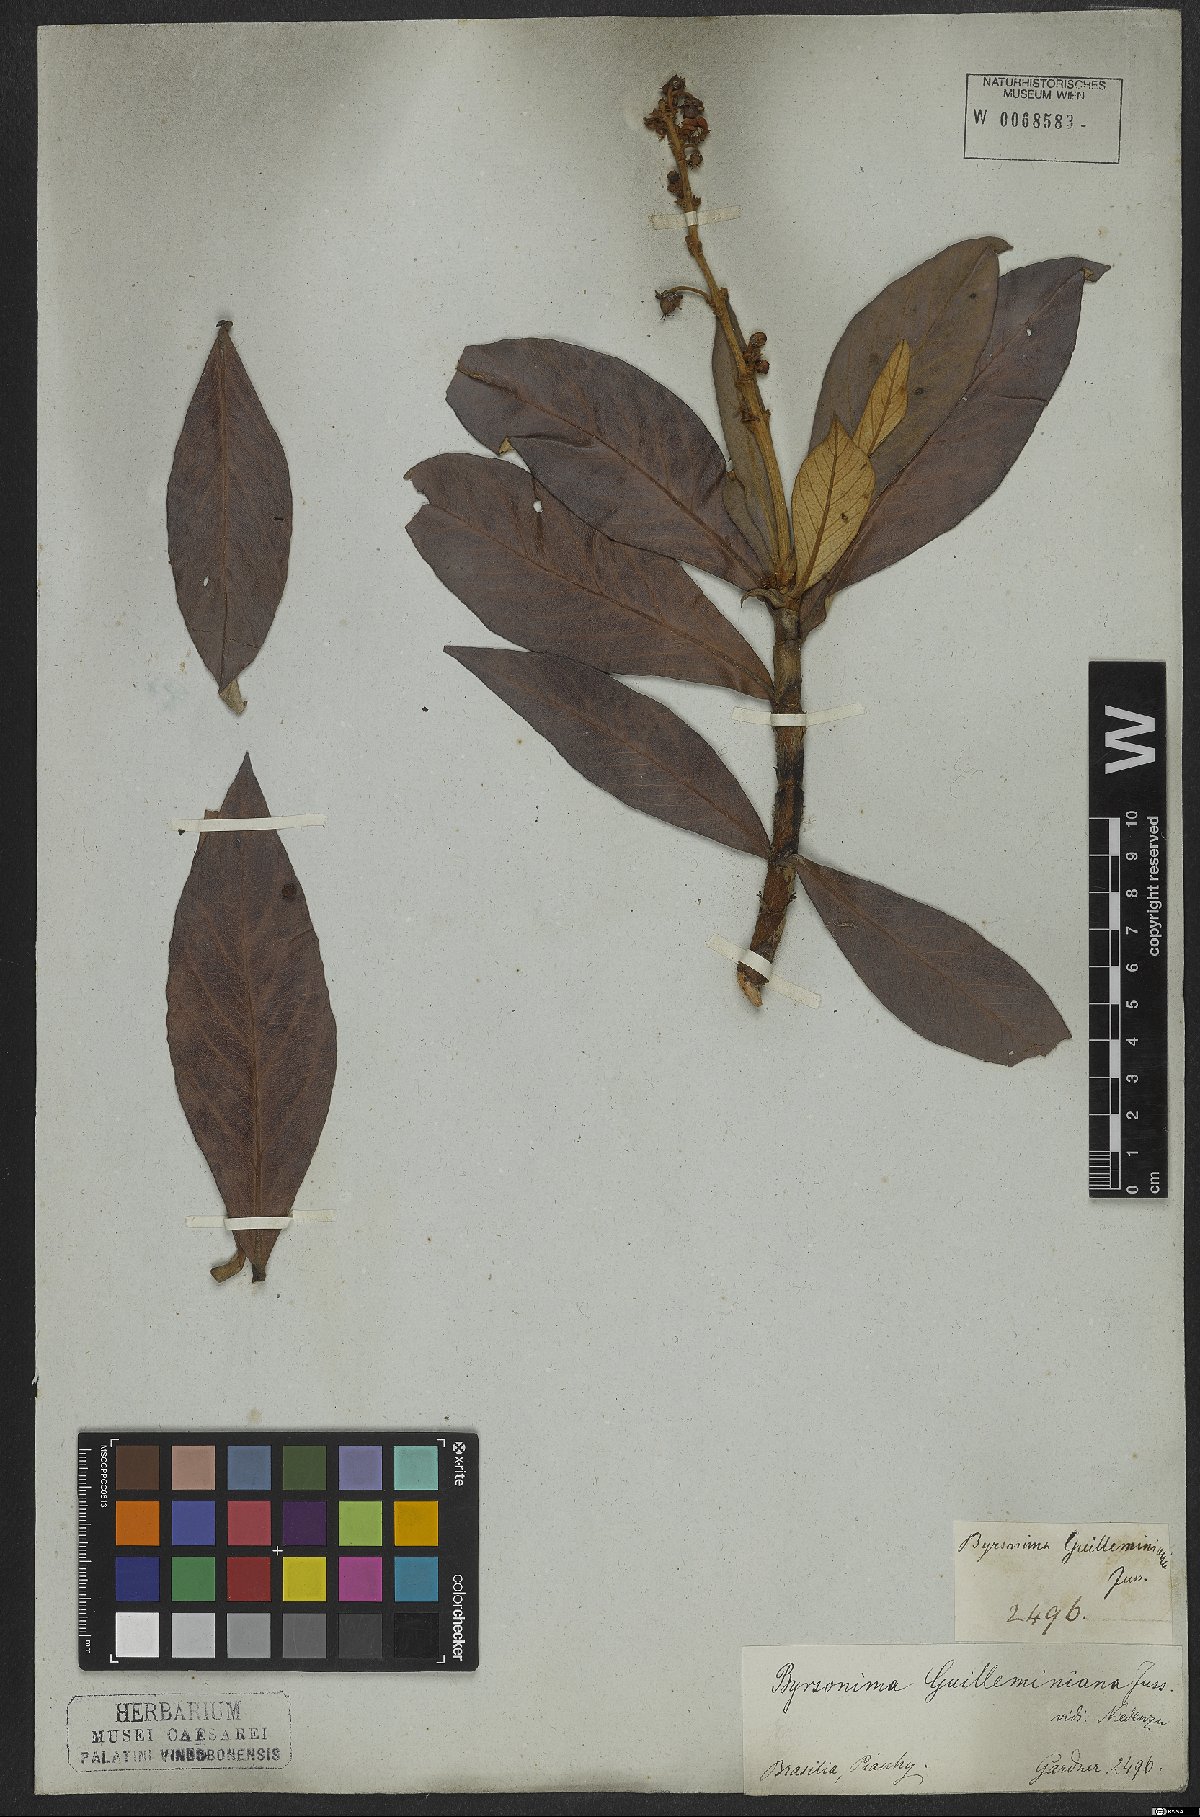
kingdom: Plantae
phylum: Tracheophyta
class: Magnoliopsida
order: Malpighiales
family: Malpighiaceae
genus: Byrsonima
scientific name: Byrsonima guilleminiana
